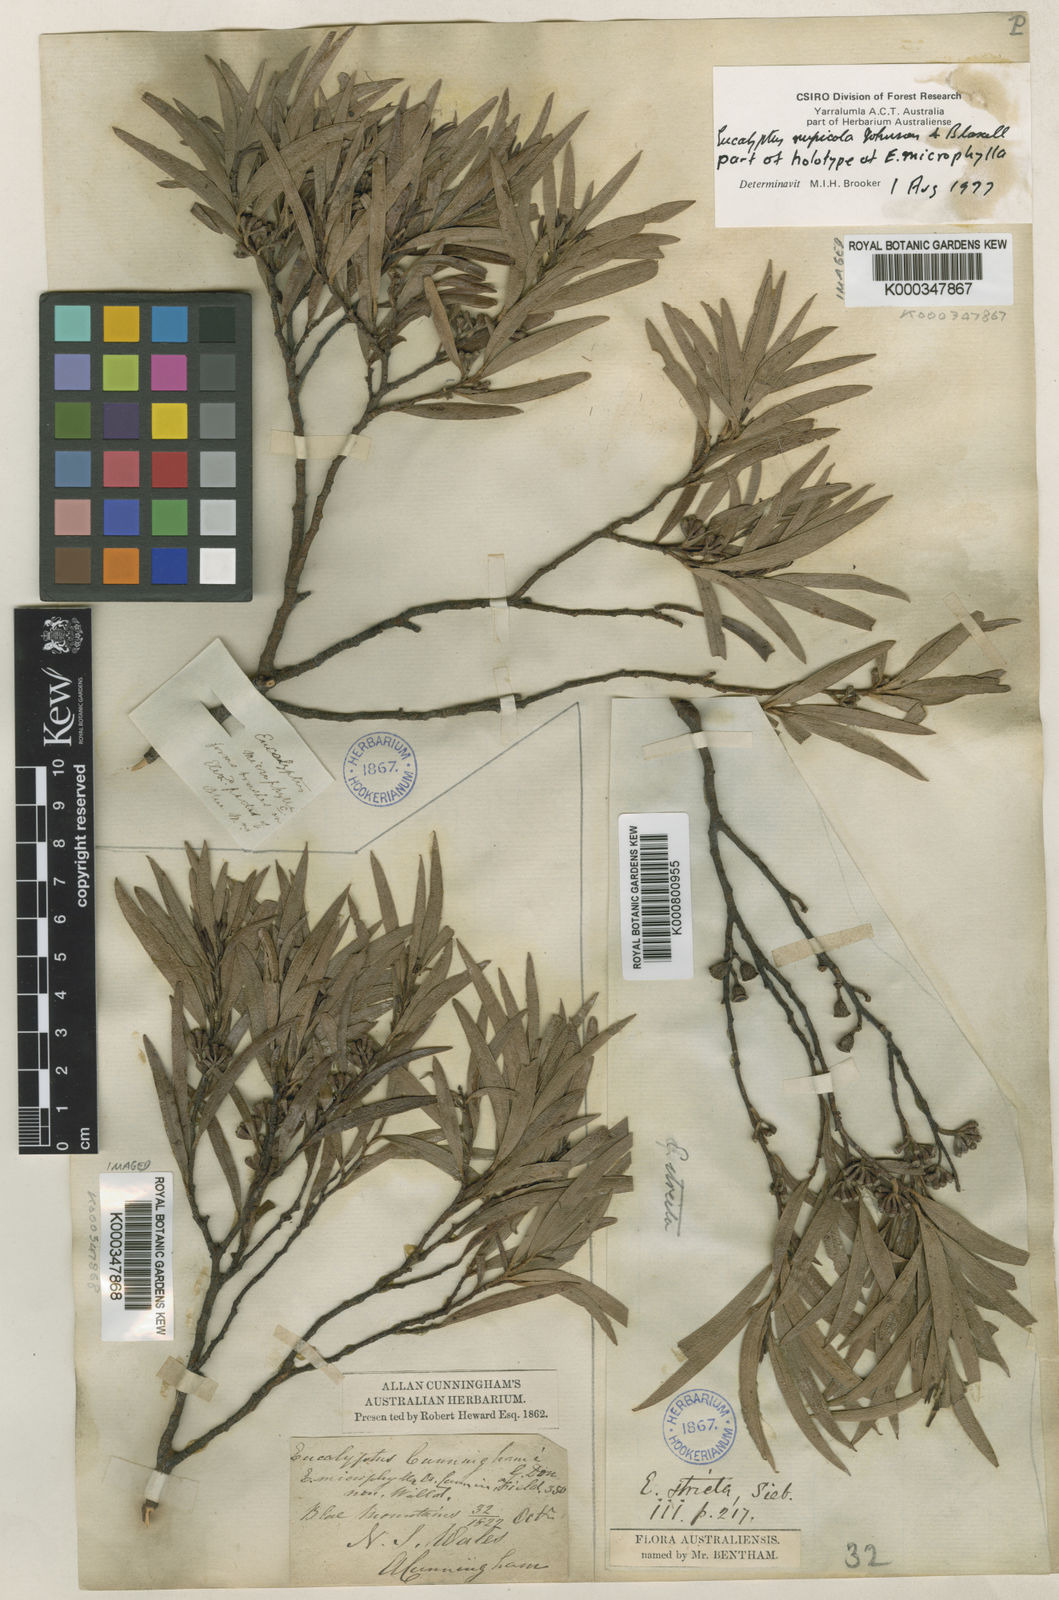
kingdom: Plantae
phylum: Tracheophyta
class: Magnoliopsida
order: Myrtales
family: Myrtaceae
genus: Eucalyptus
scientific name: Eucalyptus cunninghamii
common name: Cliff mallee ash
